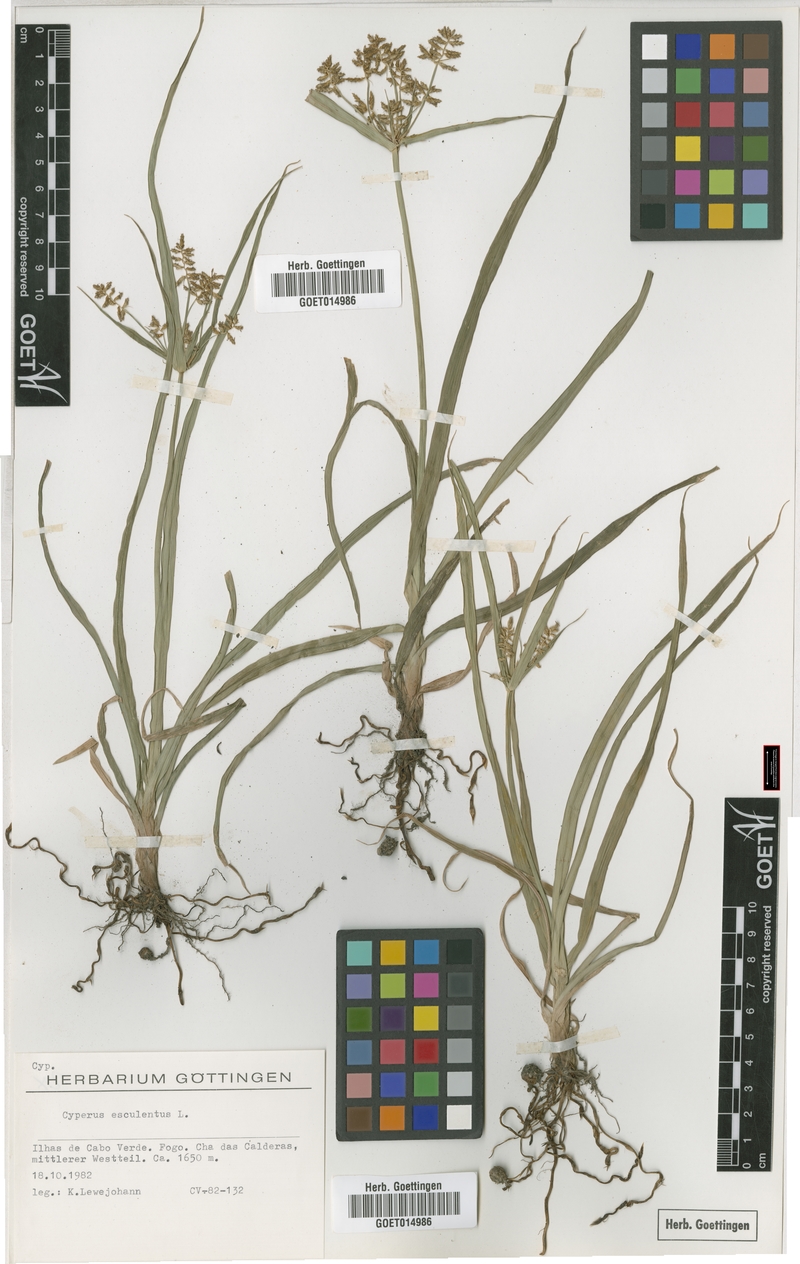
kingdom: Plantae
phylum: Tracheophyta
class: Liliopsida
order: Poales
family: Cyperaceae
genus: Cyperus
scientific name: Cyperus esculentus
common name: Yellow nutsedge
